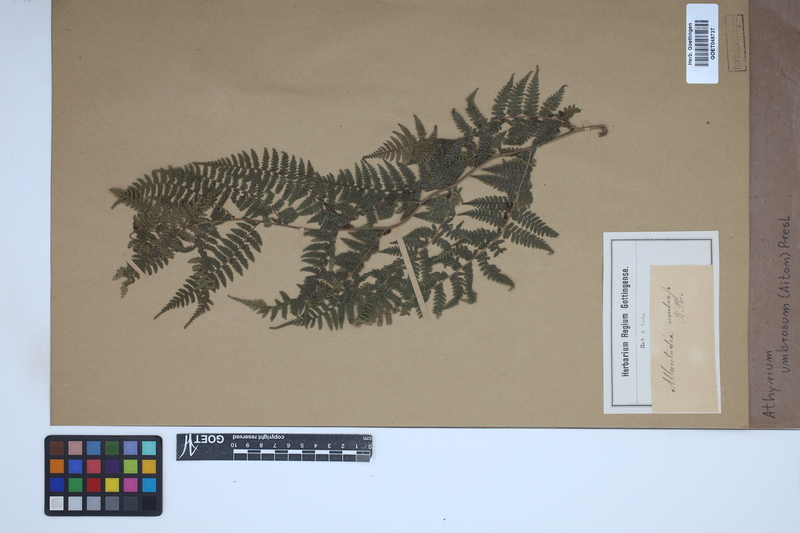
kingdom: Plantae
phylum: Tracheophyta
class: Polypodiopsida
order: Polypodiales
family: Athyriaceae
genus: Diplazium
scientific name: Diplazium caudatum
